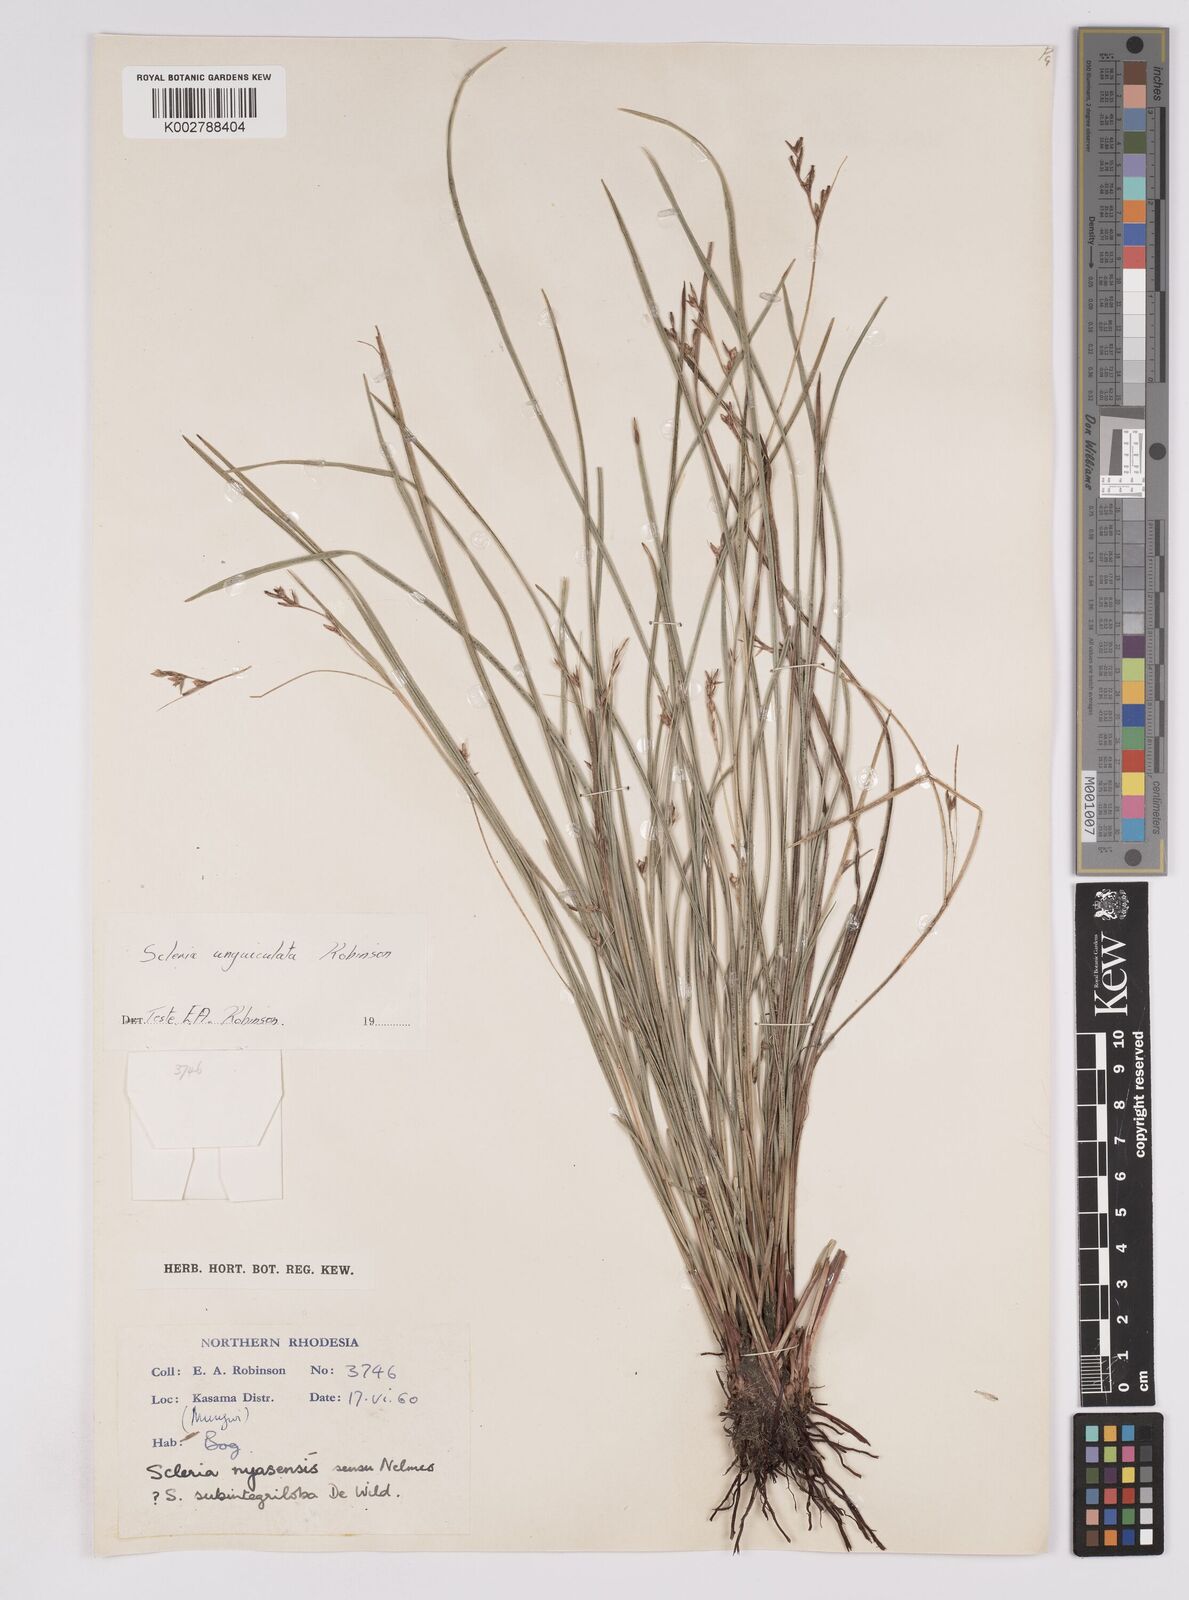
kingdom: Plantae
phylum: Tracheophyta
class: Liliopsida
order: Poales
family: Cyperaceae
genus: Scleria
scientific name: Scleria unguiculata
